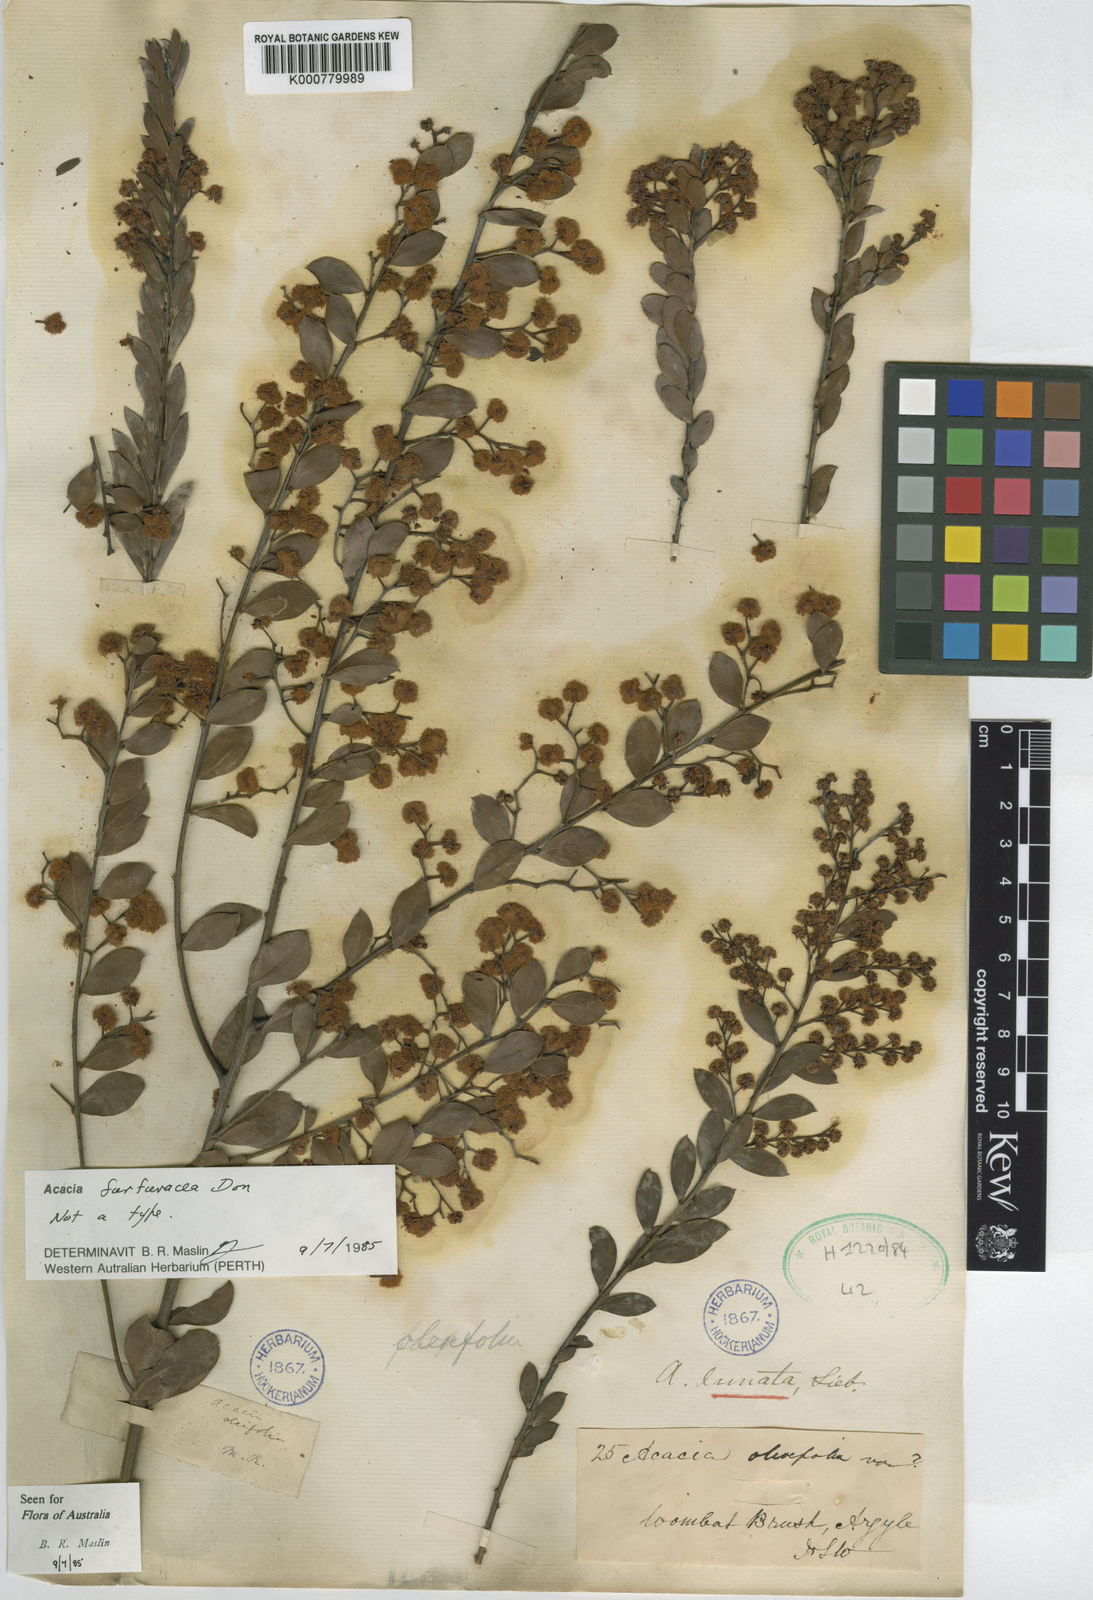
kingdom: Plantae
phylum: Tracheophyta
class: Magnoliopsida
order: Fabales
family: Fabaceae
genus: Acacia
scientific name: Acacia
